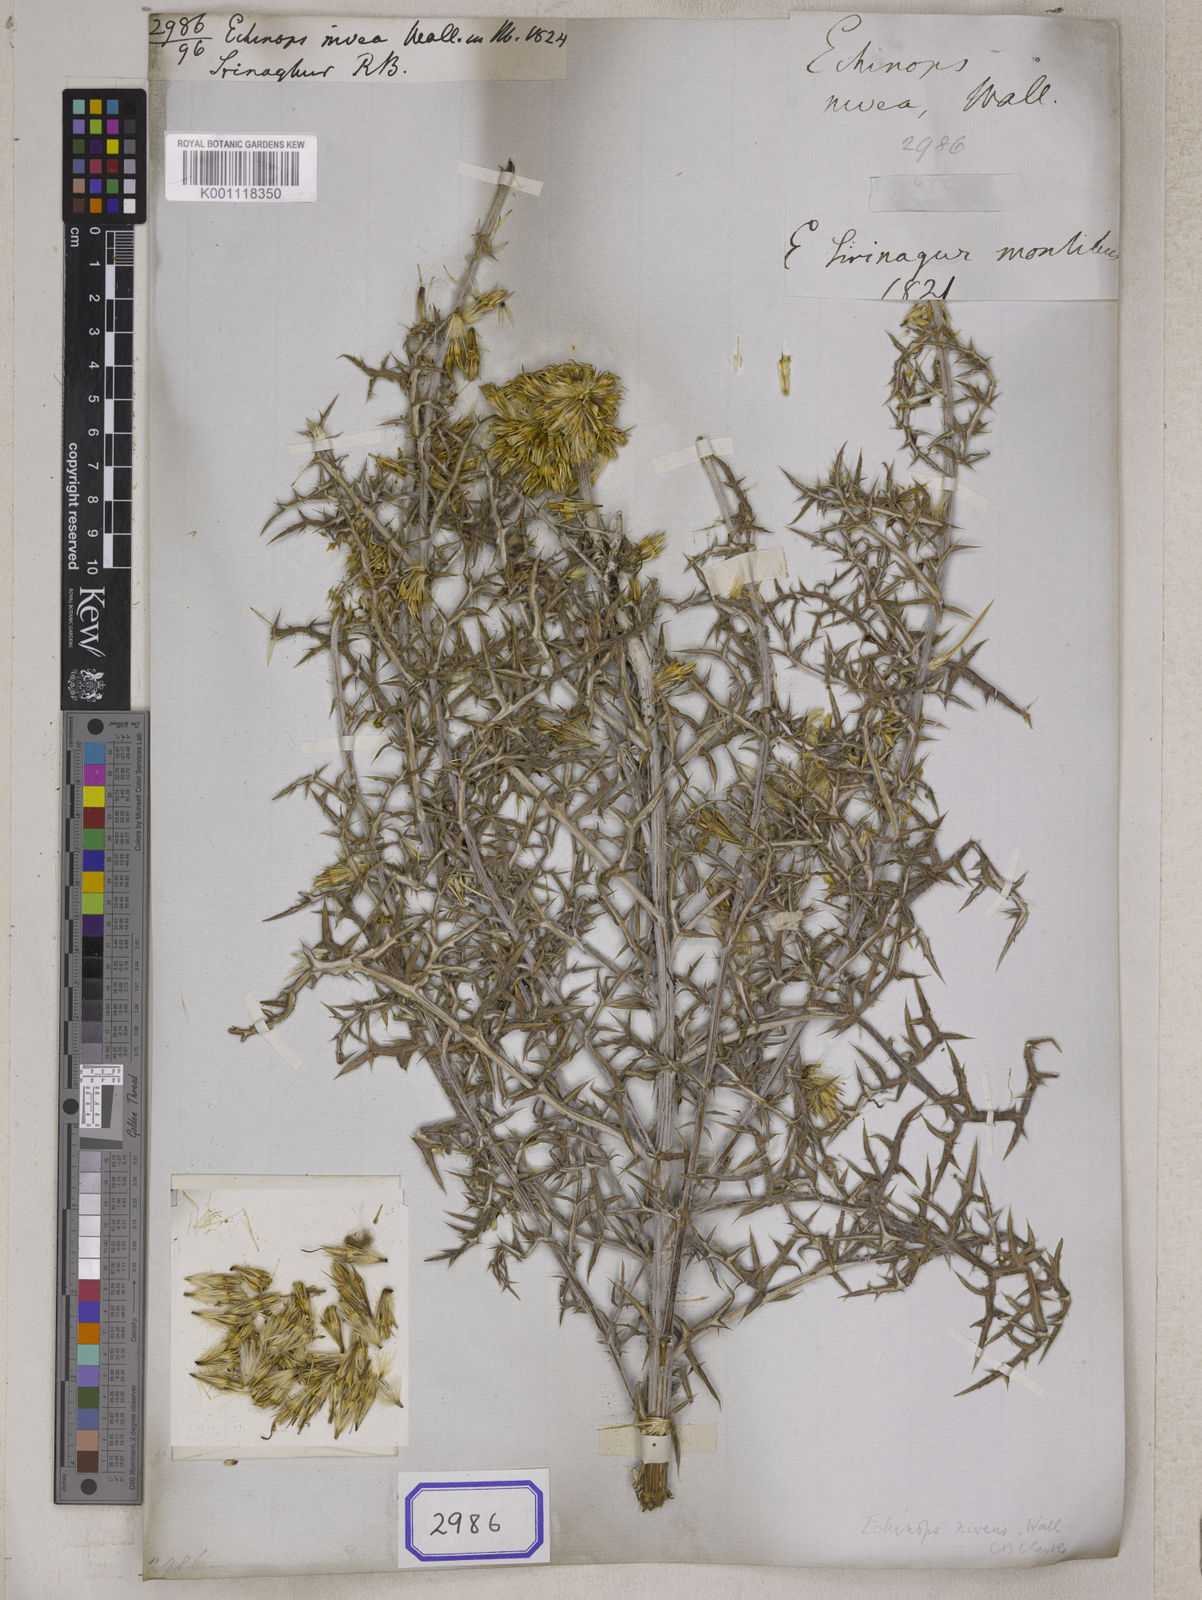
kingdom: Plantae
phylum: Tracheophyta
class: Magnoliopsida
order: Asterales
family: Asteraceae
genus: Echinops
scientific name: Echinops niveus
